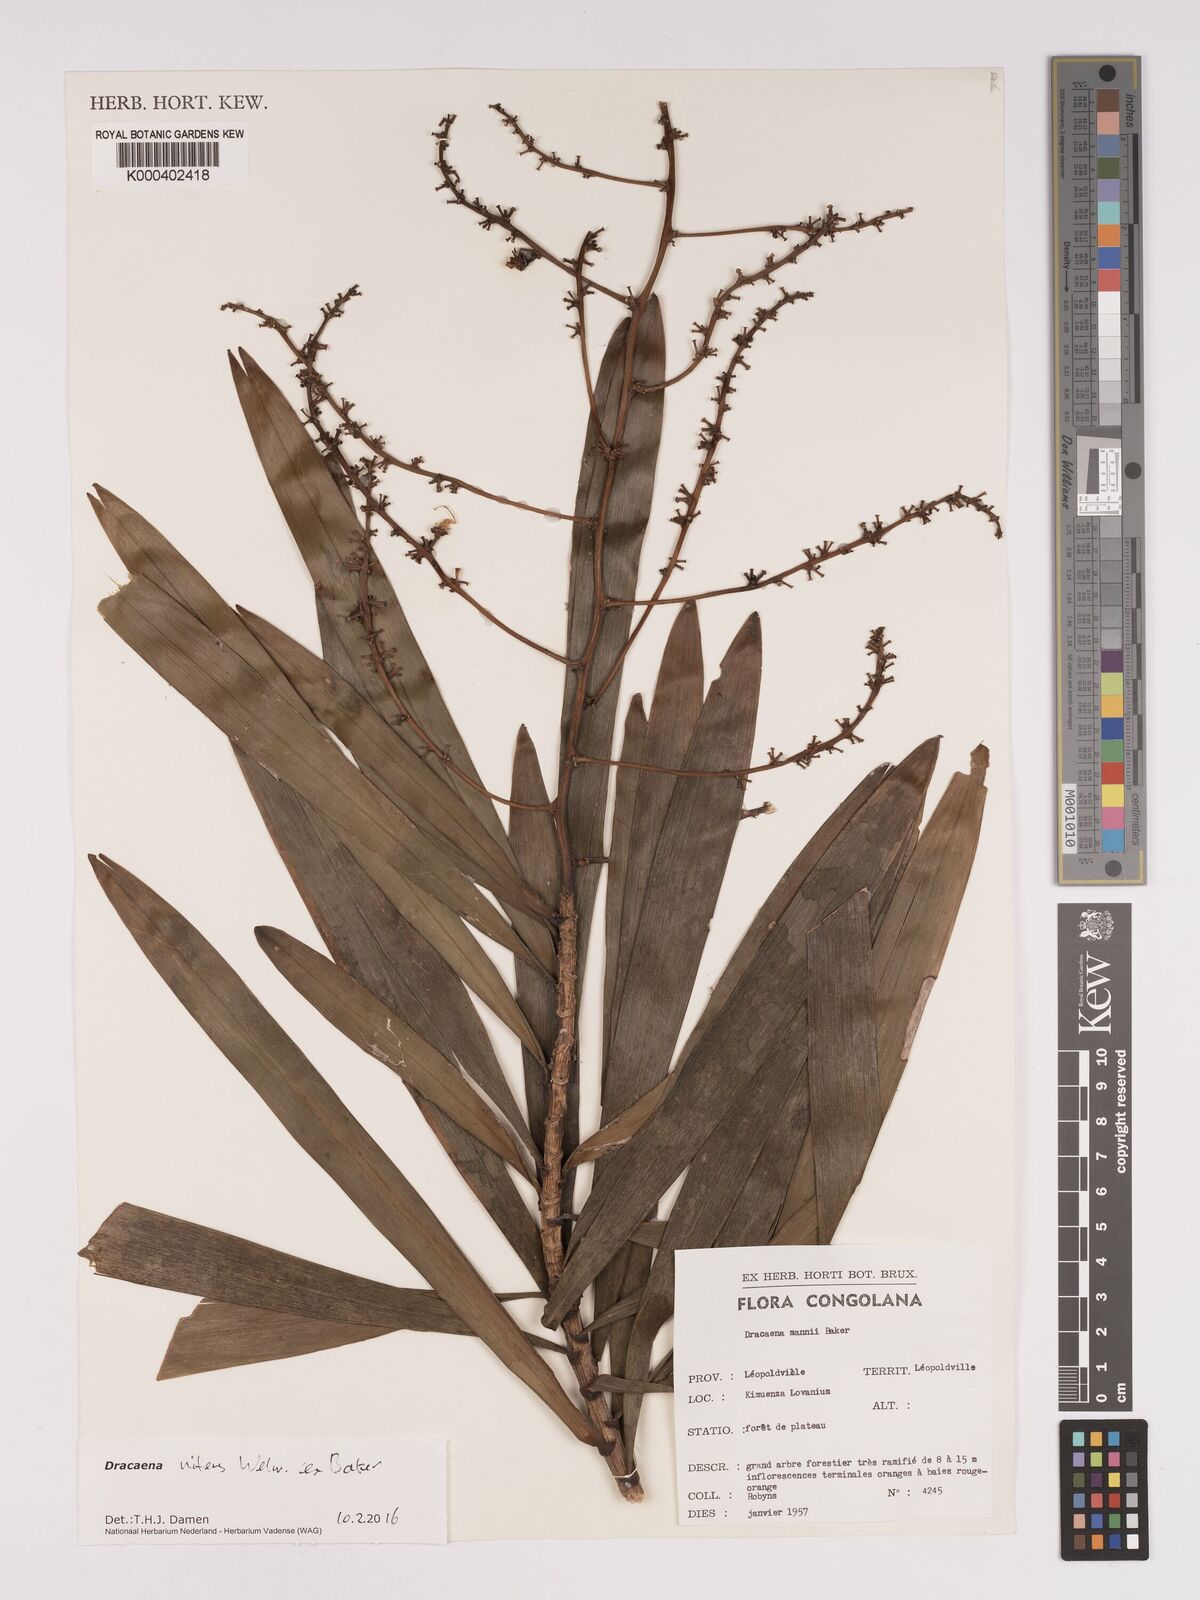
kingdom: Plantae
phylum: Tracheophyta
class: Liliopsida
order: Asparagales
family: Asparagaceae
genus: Dracaena
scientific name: Dracaena nitens
